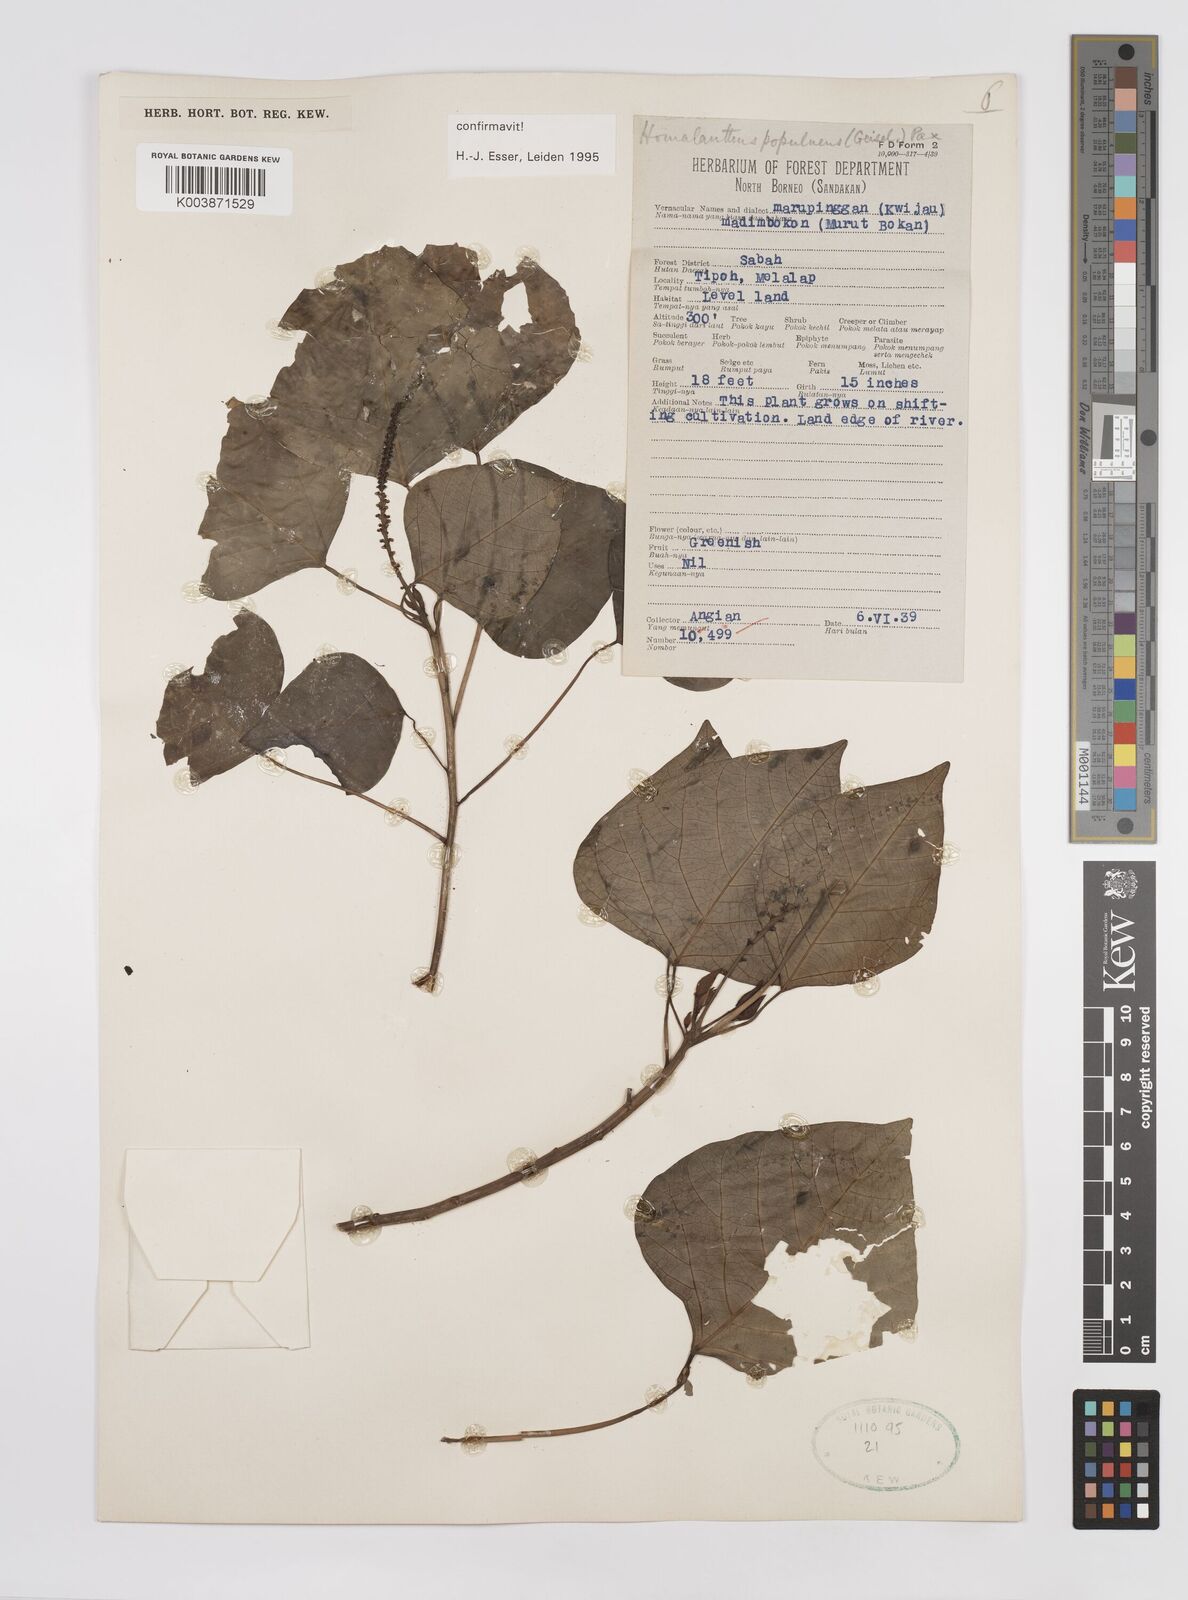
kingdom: Plantae
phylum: Tracheophyta
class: Magnoliopsida
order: Malpighiales
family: Euphorbiaceae
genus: Homalanthus
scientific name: Homalanthus populneus
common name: Spurge
